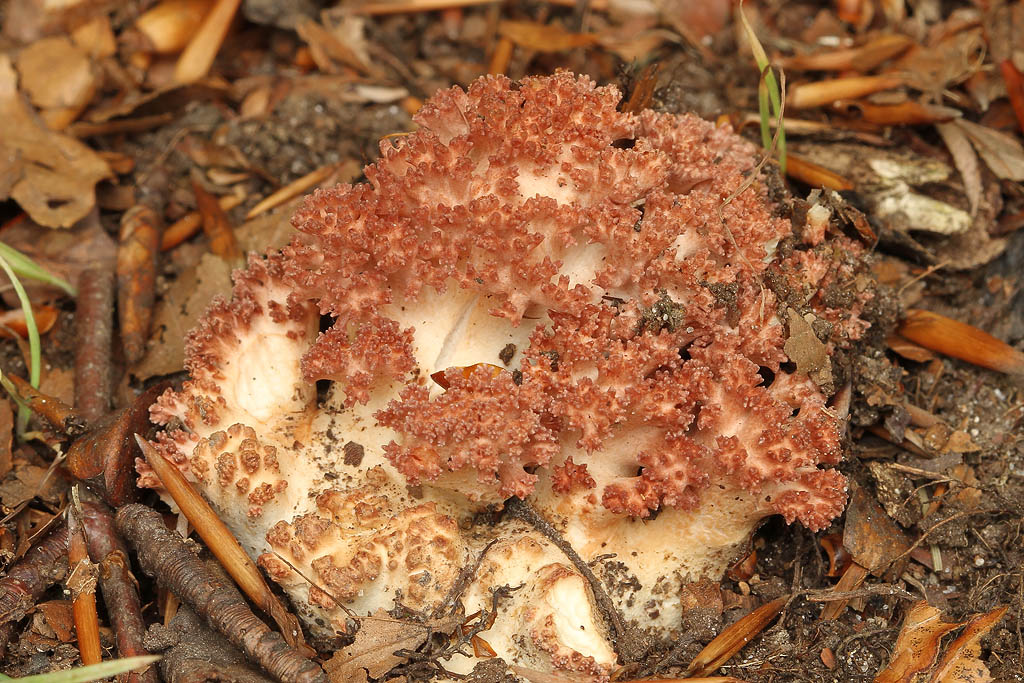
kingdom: Fungi
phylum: Basidiomycota
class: Agaricomycetes
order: Gomphales
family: Gomphaceae
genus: Ramaria
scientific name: Ramaria botrytis
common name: drue-koralsvamp
